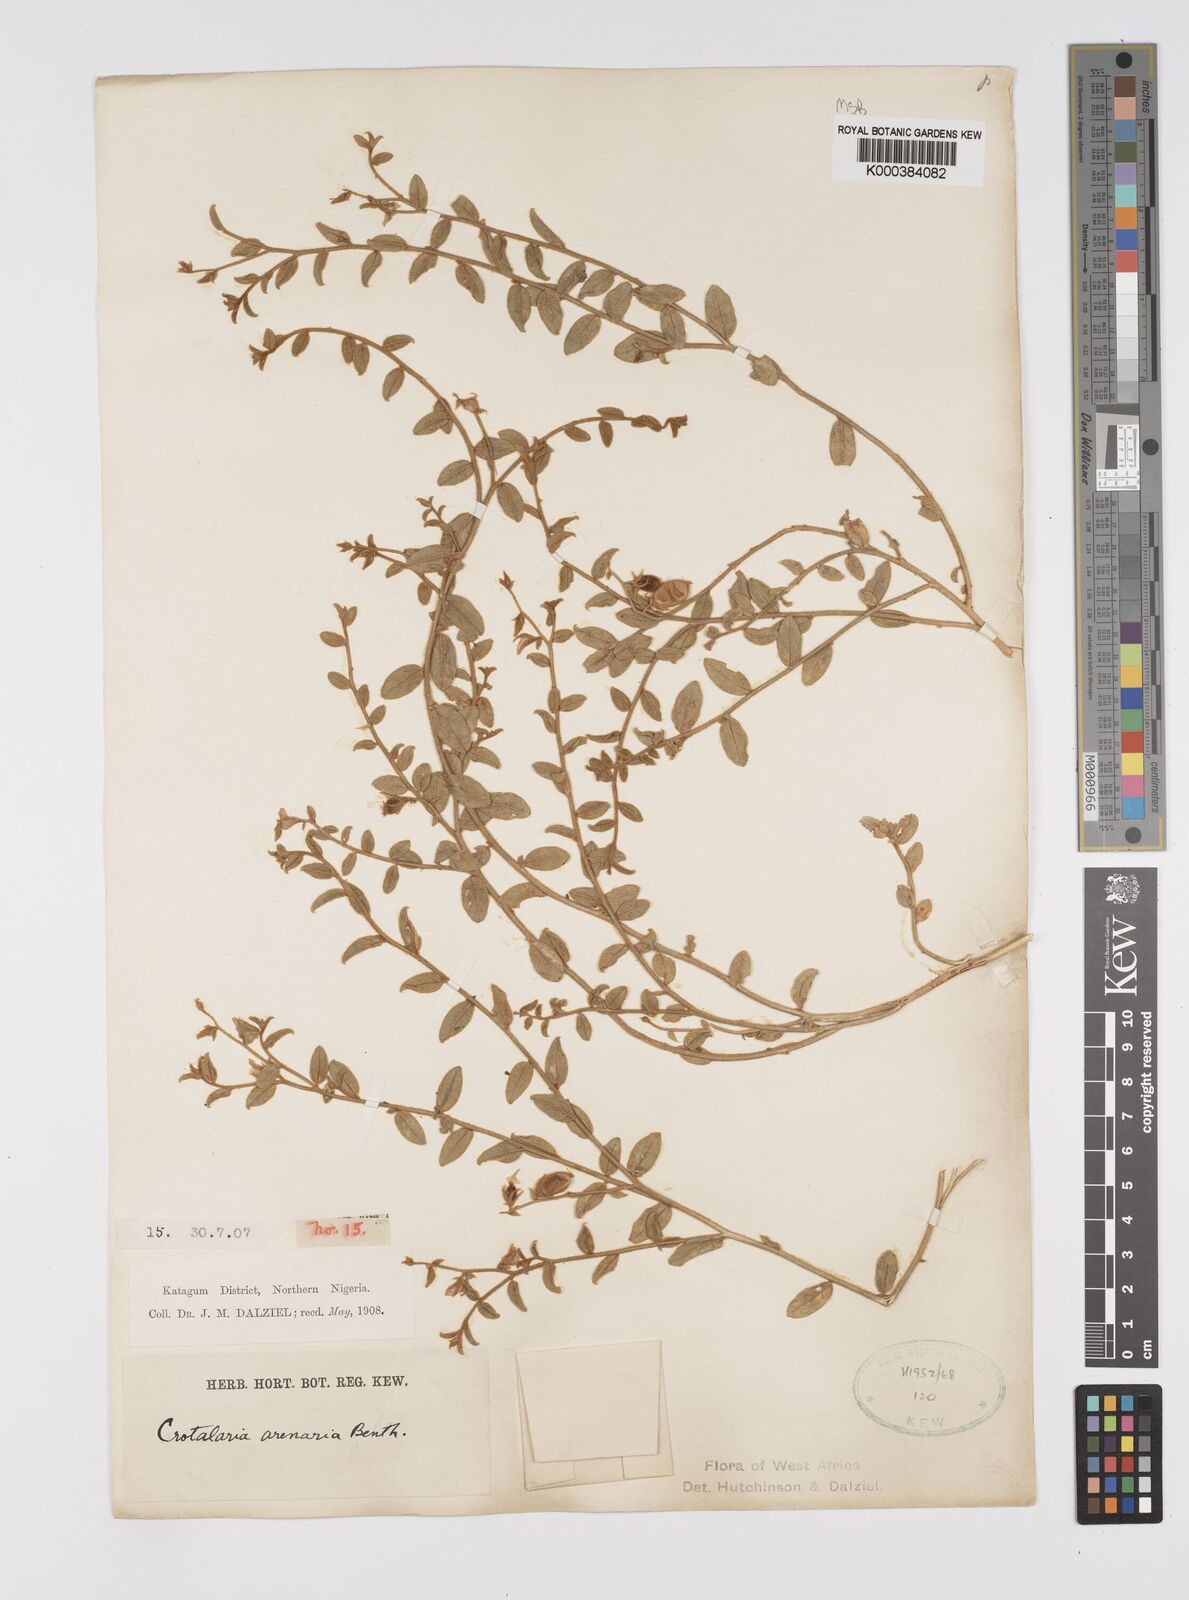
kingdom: Plantae
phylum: Tracheophyta
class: Magnoliopsida
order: Fabales
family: Fabaceae
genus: Crotalaria
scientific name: Crotalaria arenaria
